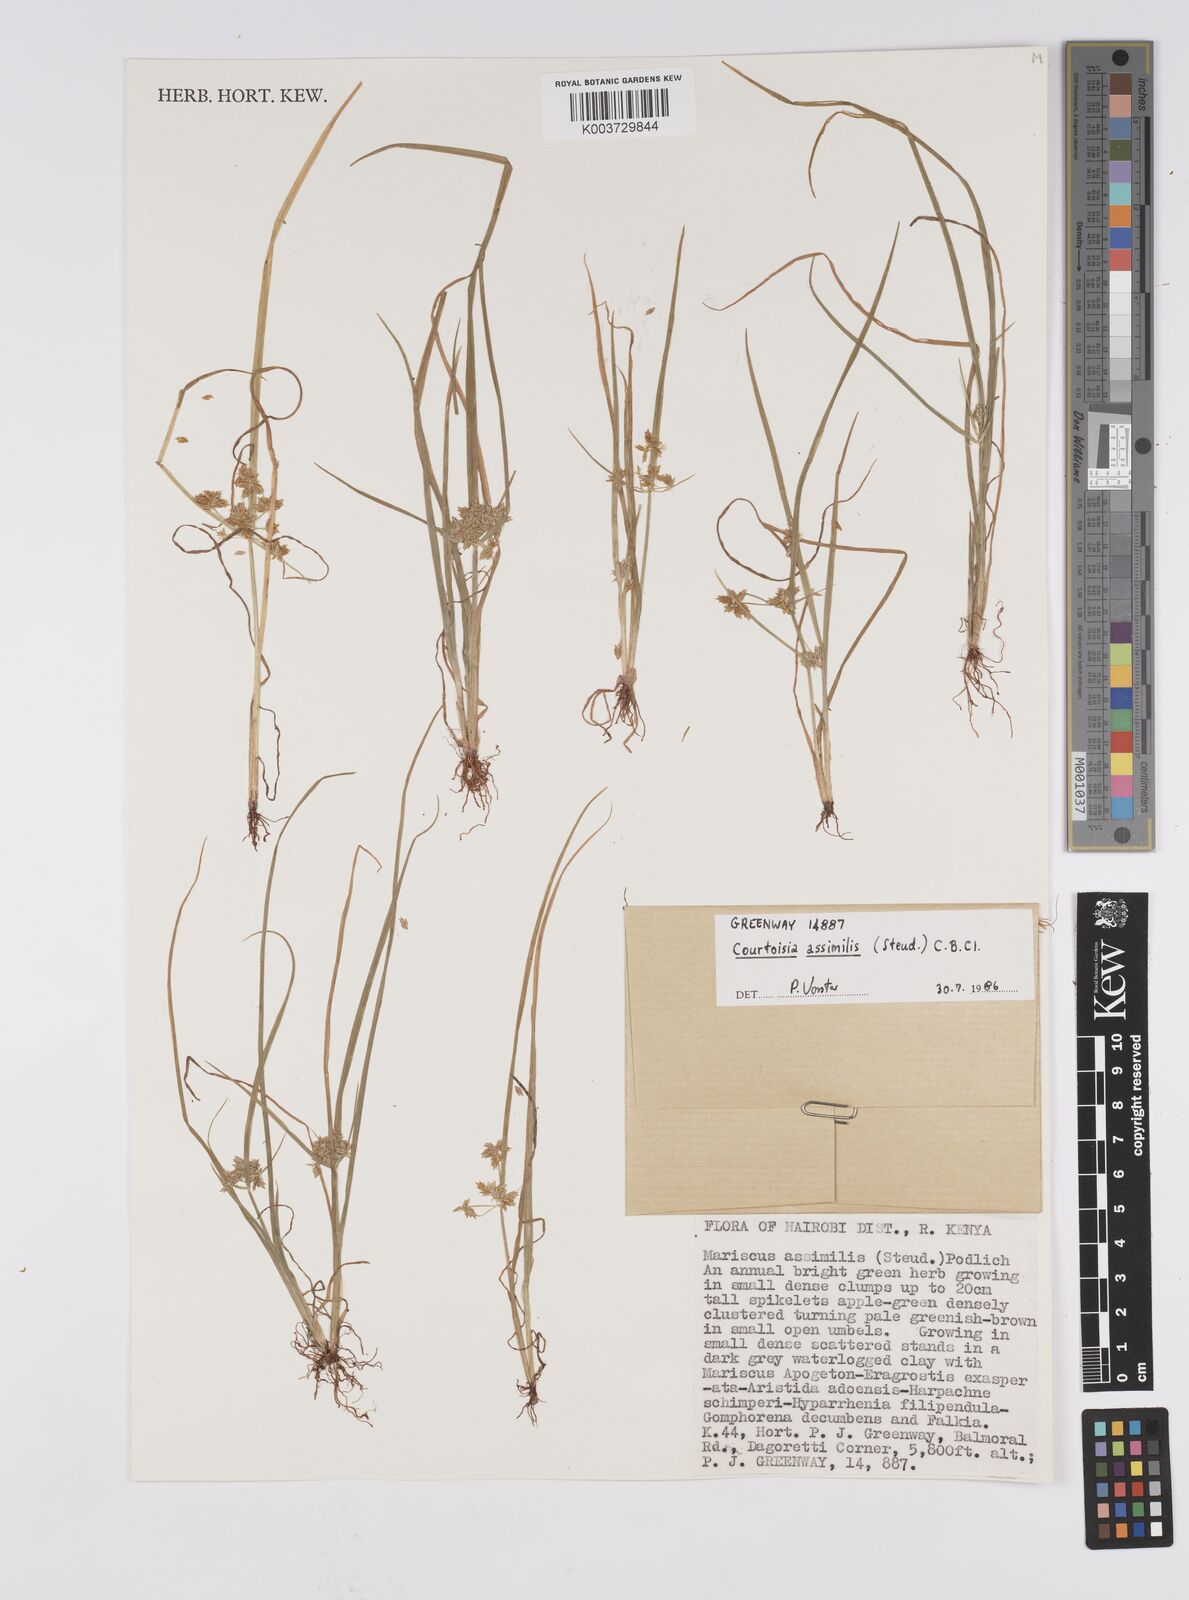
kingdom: Plantae
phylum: Tracheophyta
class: Liliopsida
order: Poales
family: Cyperaceae
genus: Cyperus
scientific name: Cyperus assimilis
